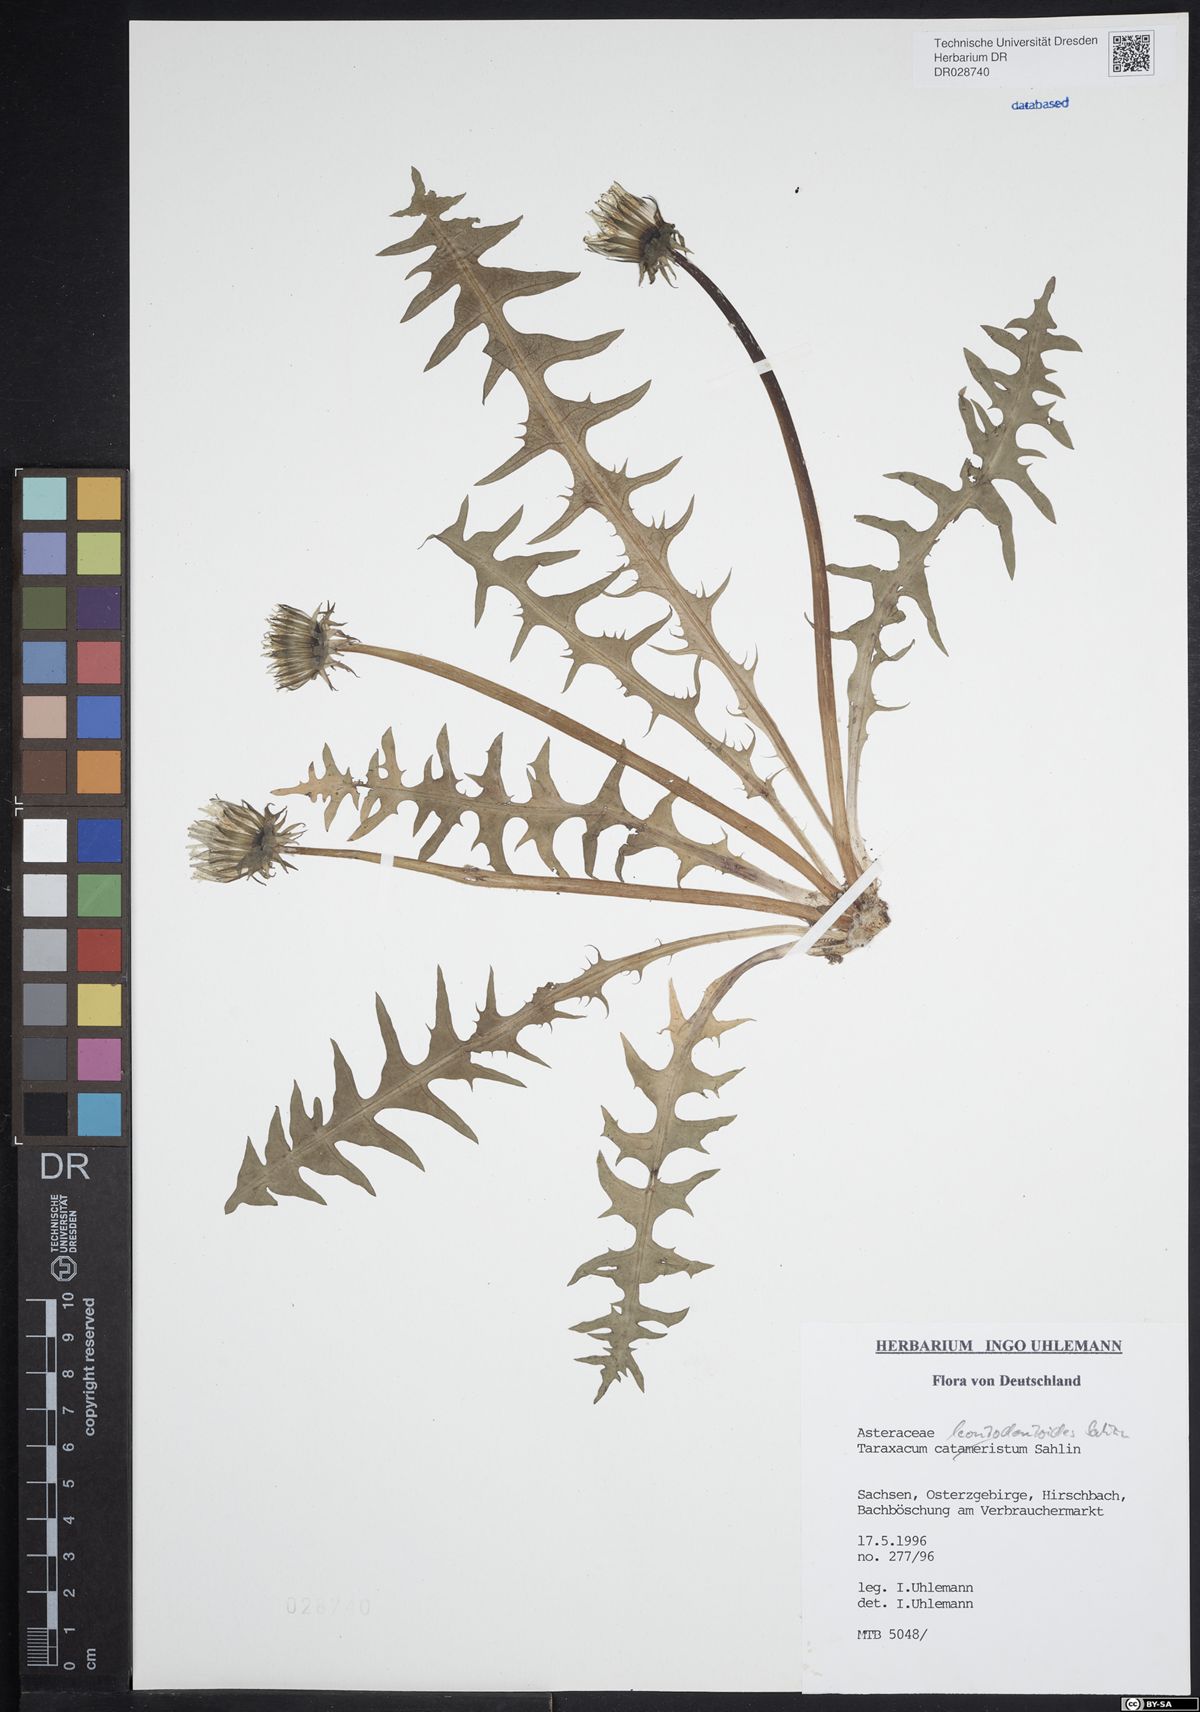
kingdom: Plantae
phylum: Tracheophyta
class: Magnoliopsida
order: Asterales
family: Asteraceae
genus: Taraxacum
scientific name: Taraxacum gentile
